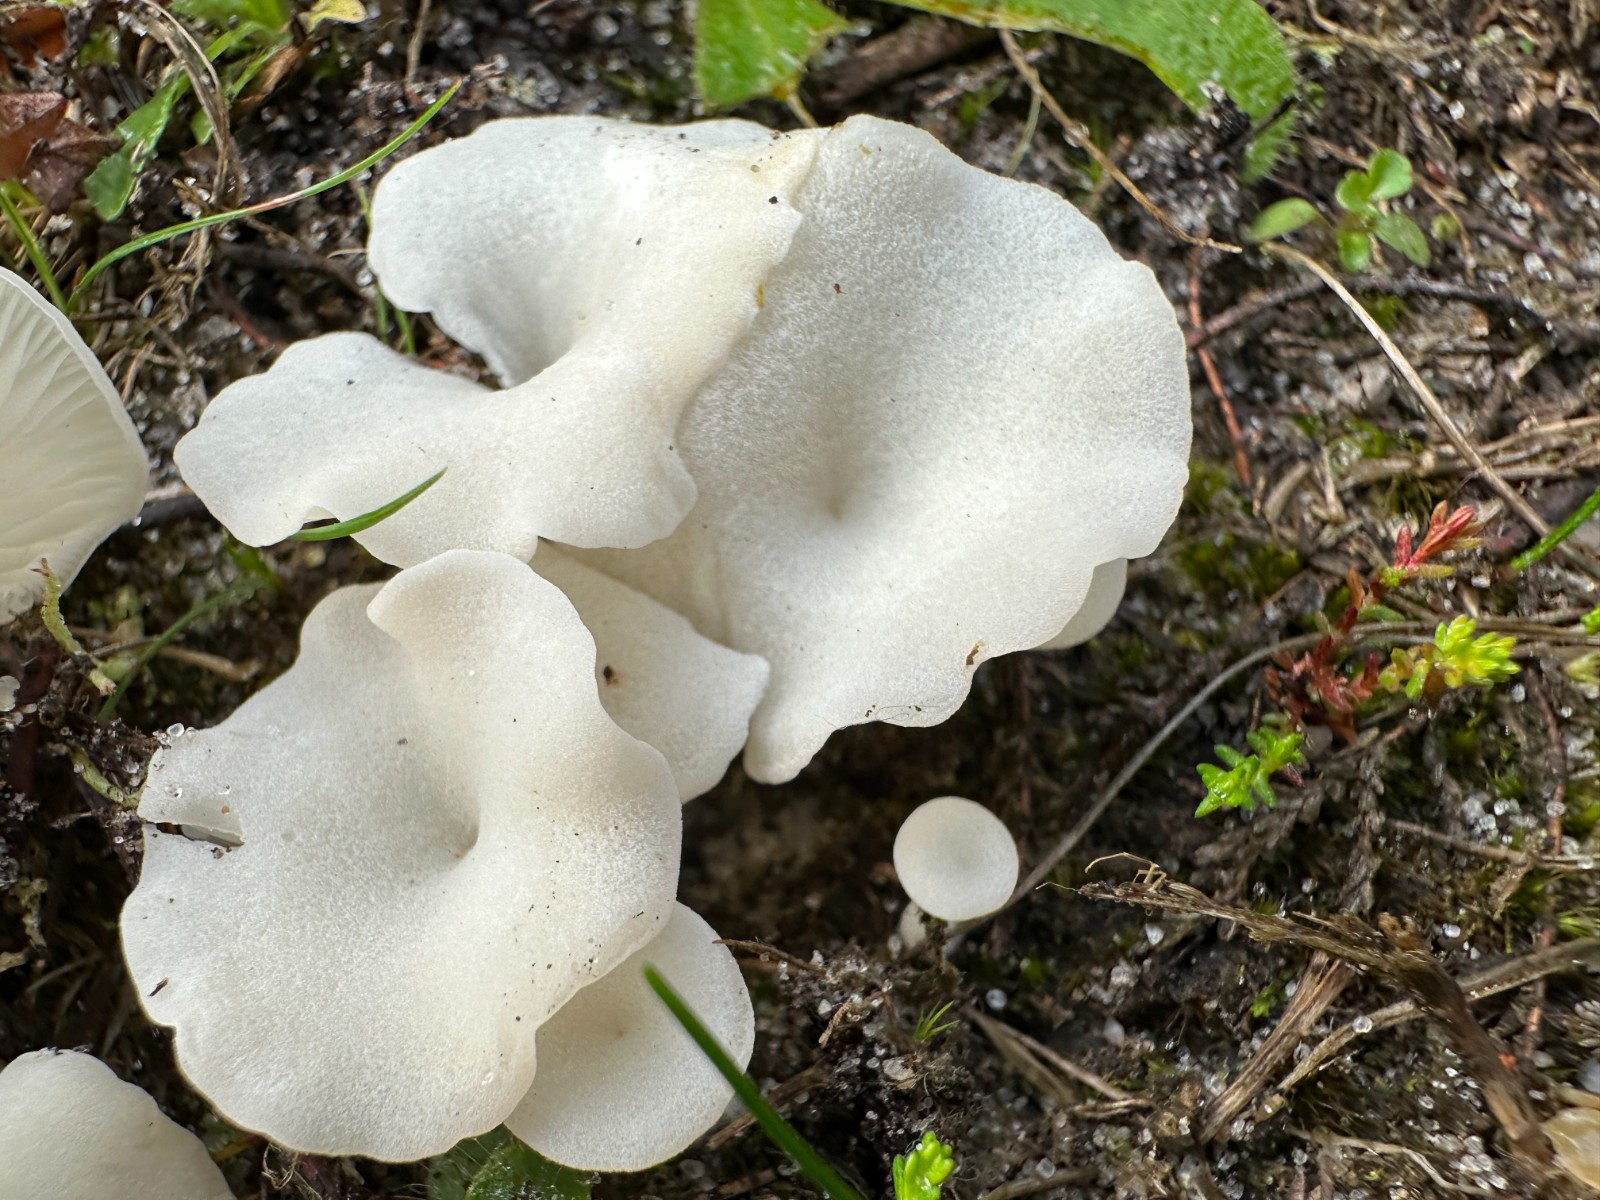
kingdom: Fungi
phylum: Basidiomycota
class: Agaricomycetes
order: Agaricales
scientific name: Agaricales
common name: champignonordenen
